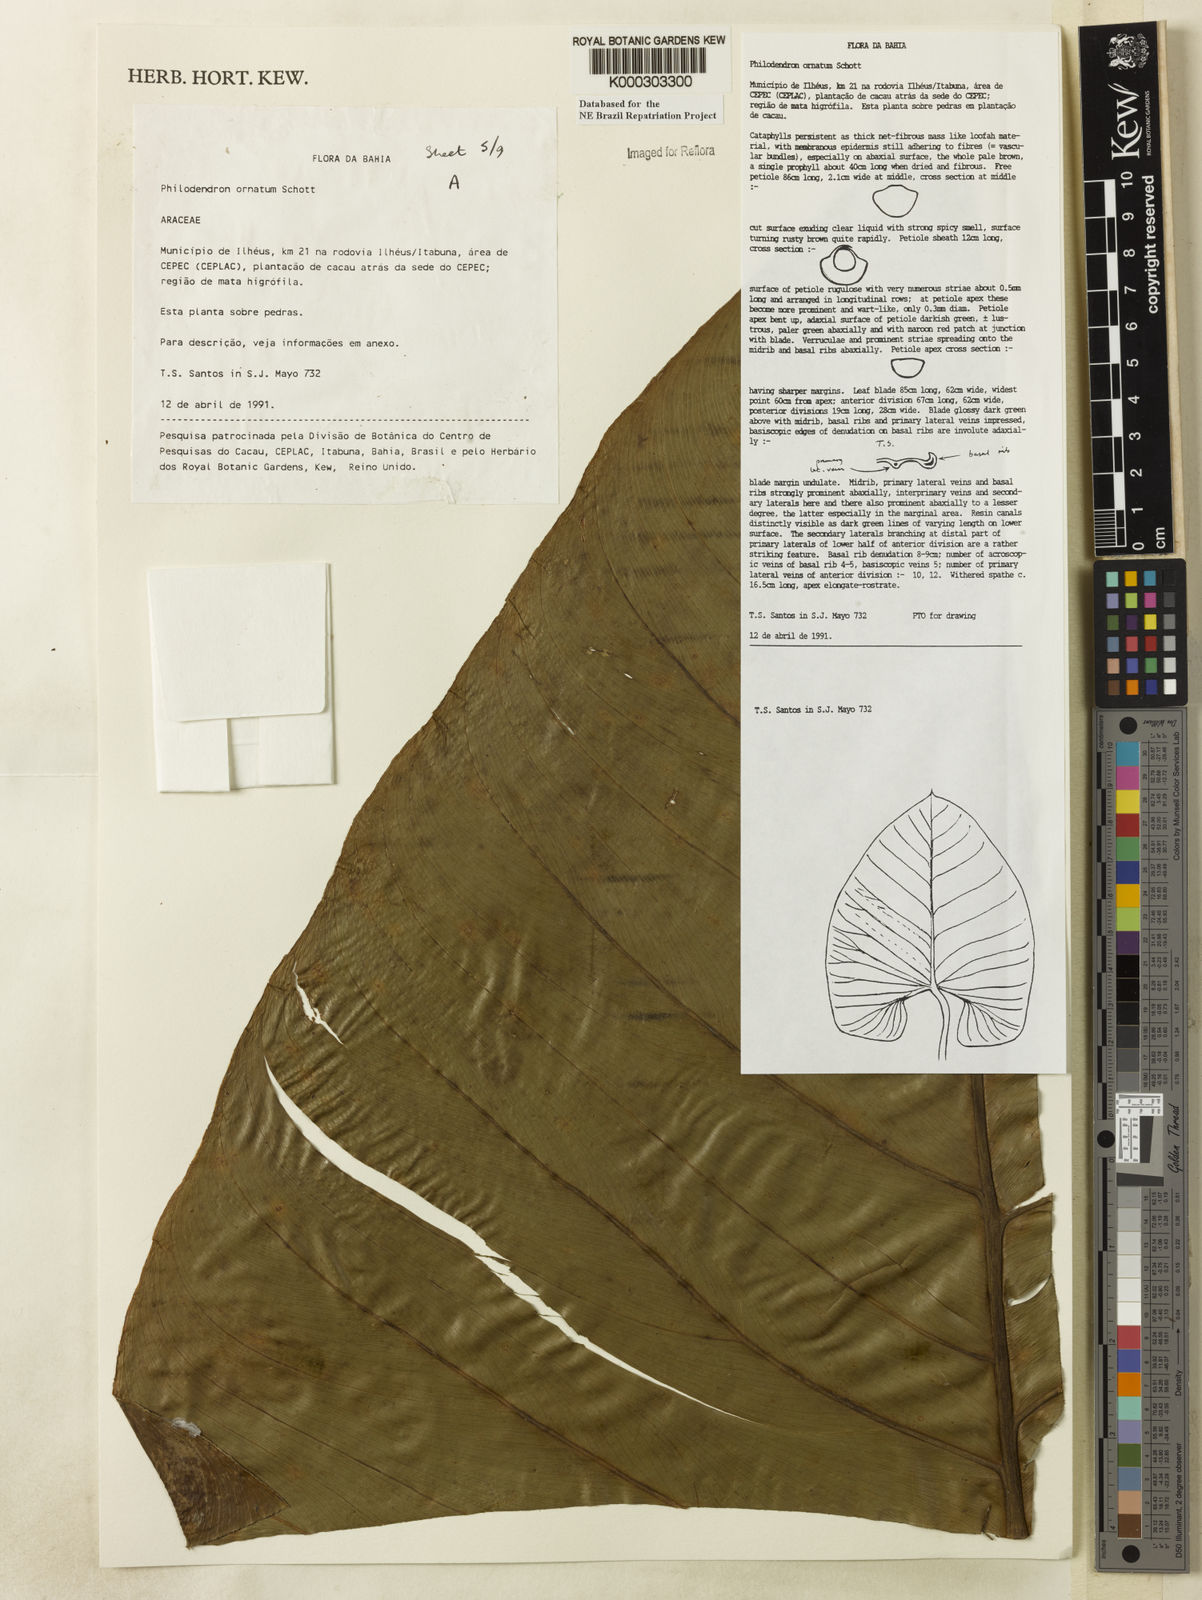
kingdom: Plantae
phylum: Tracheophyta
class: Liliopsida
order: Alismatales
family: Araceae
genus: Philodendron
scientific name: Philodendron ornatum
